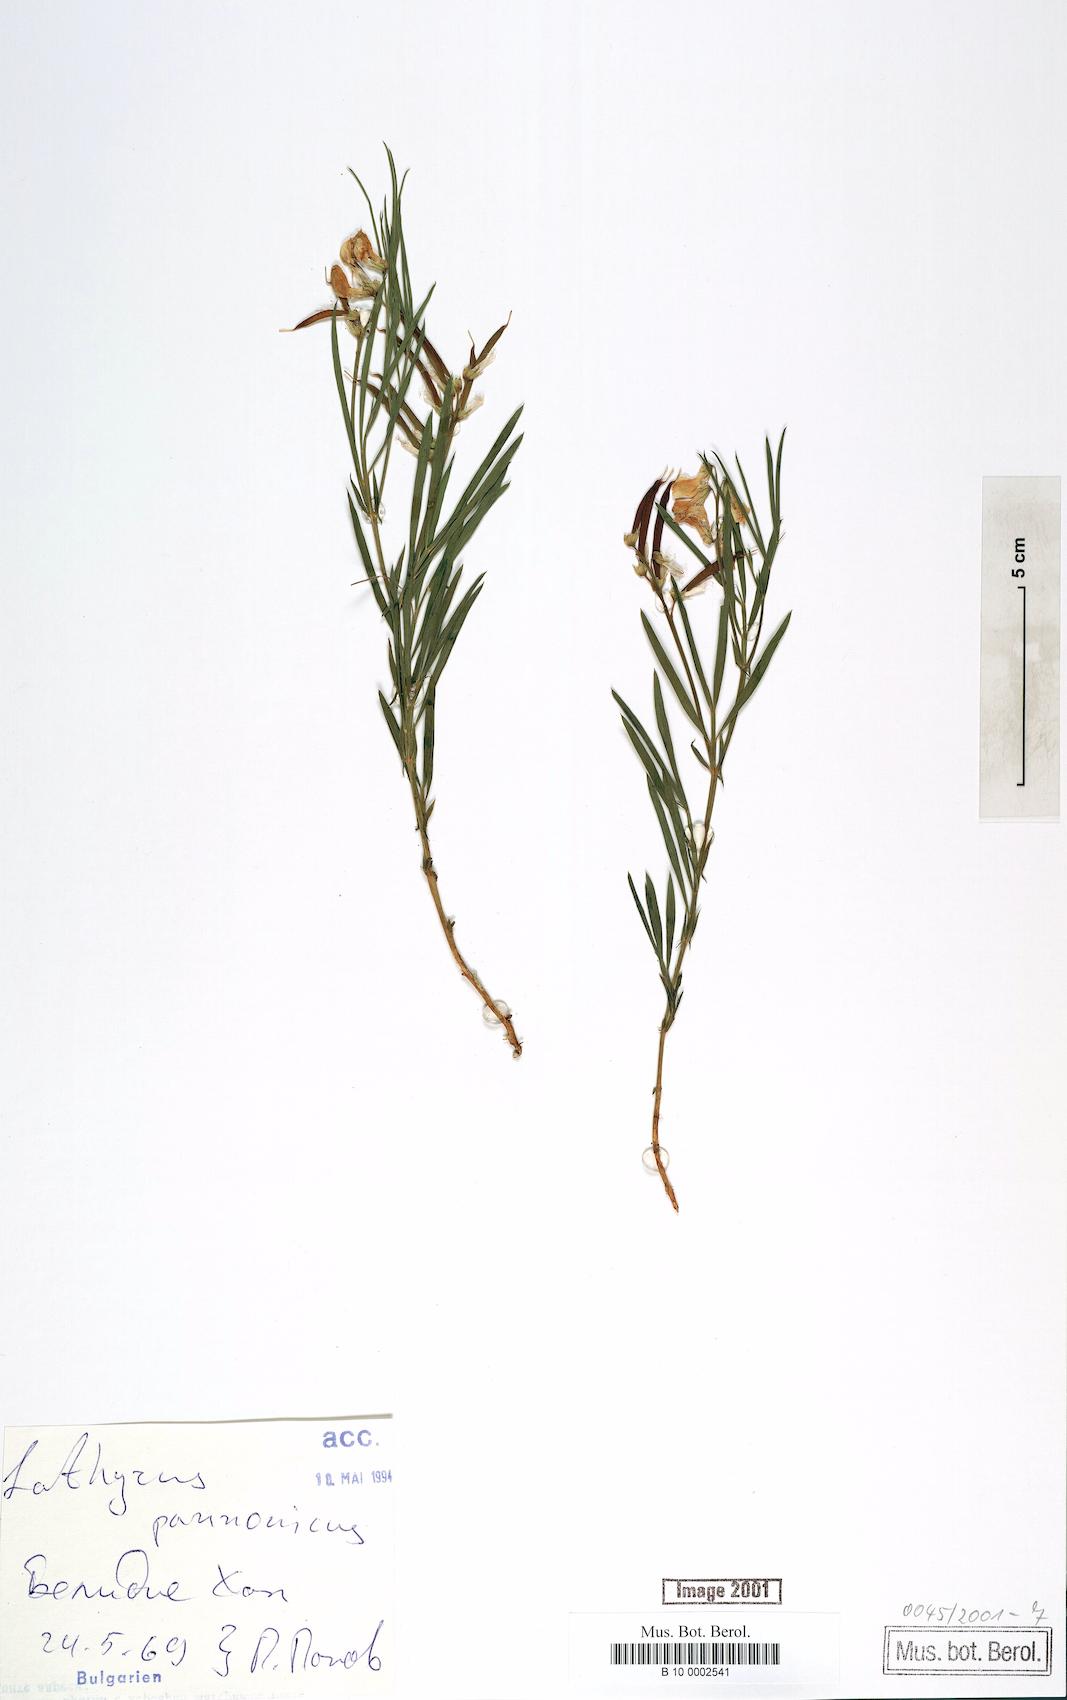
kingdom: Plantae
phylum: Tracheophyta
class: Magnoliopsida
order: Fabales
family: Fabaceae
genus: Lathyrus
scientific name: Lathyrus pannonicus
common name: Pea
